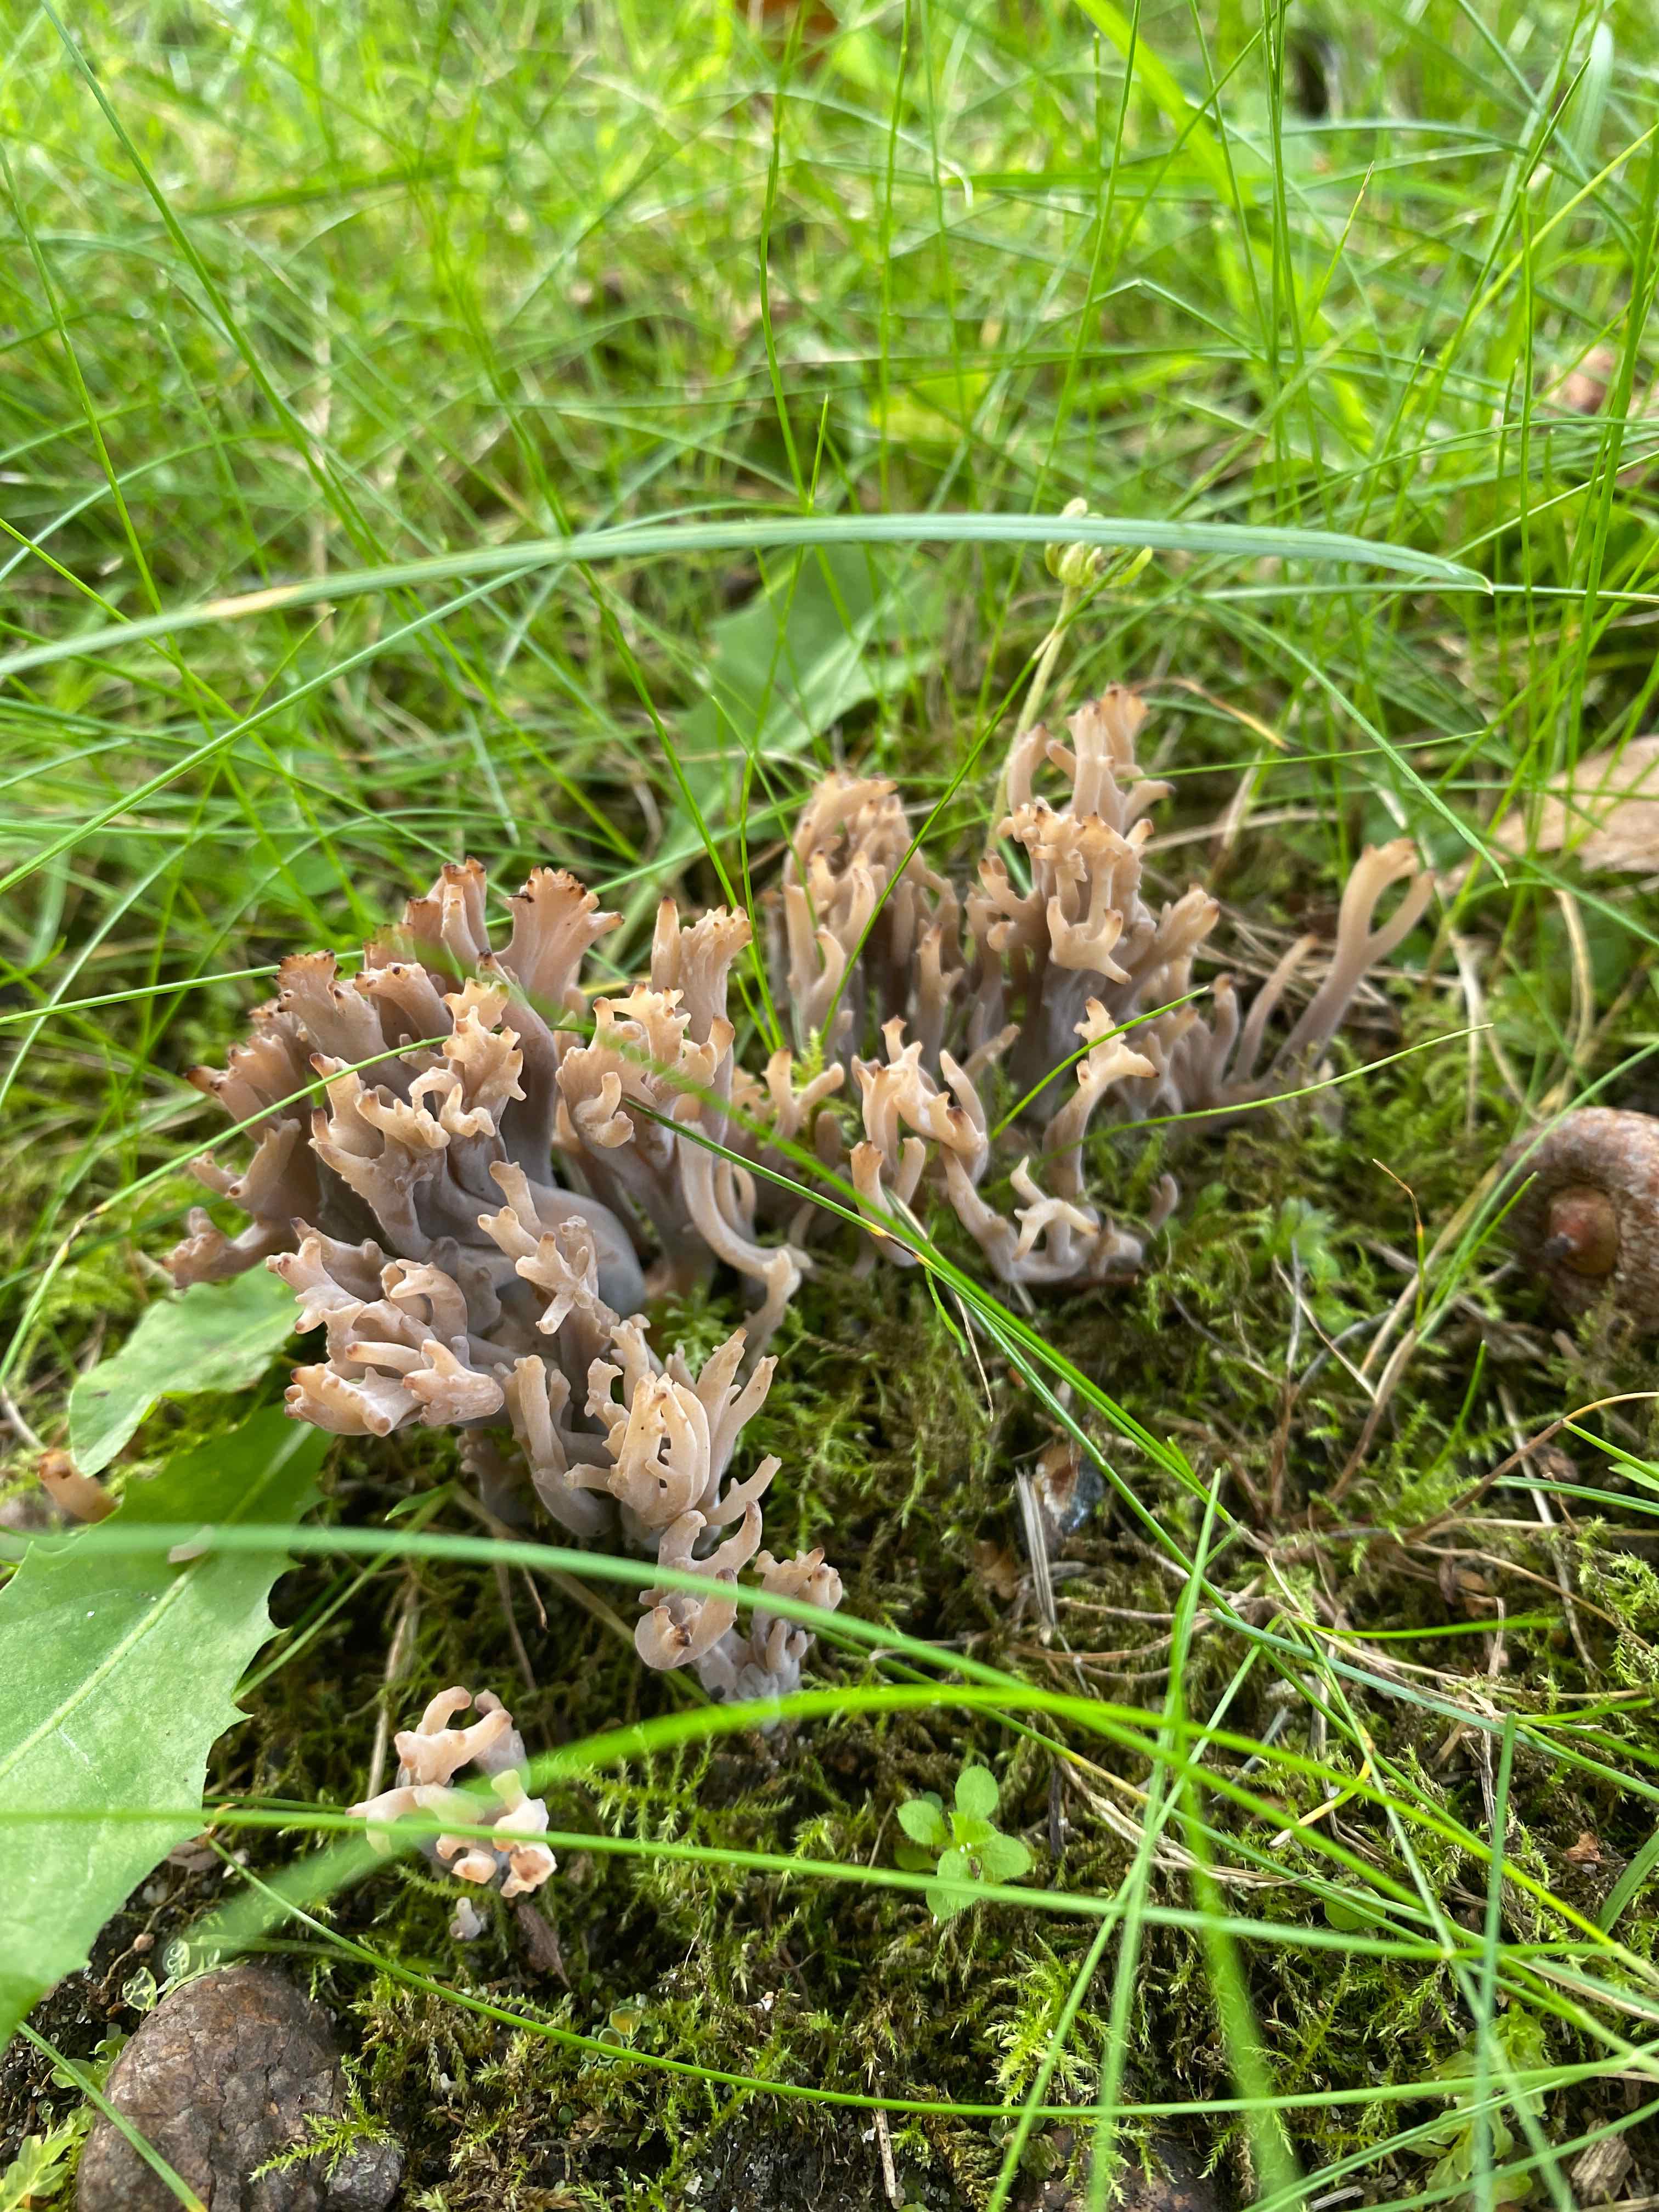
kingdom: Fungi
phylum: Basidiomycota
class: Agaricomycetes
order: Cantharellales
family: Hydnaceae
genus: Clavulina
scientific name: Clavulina
